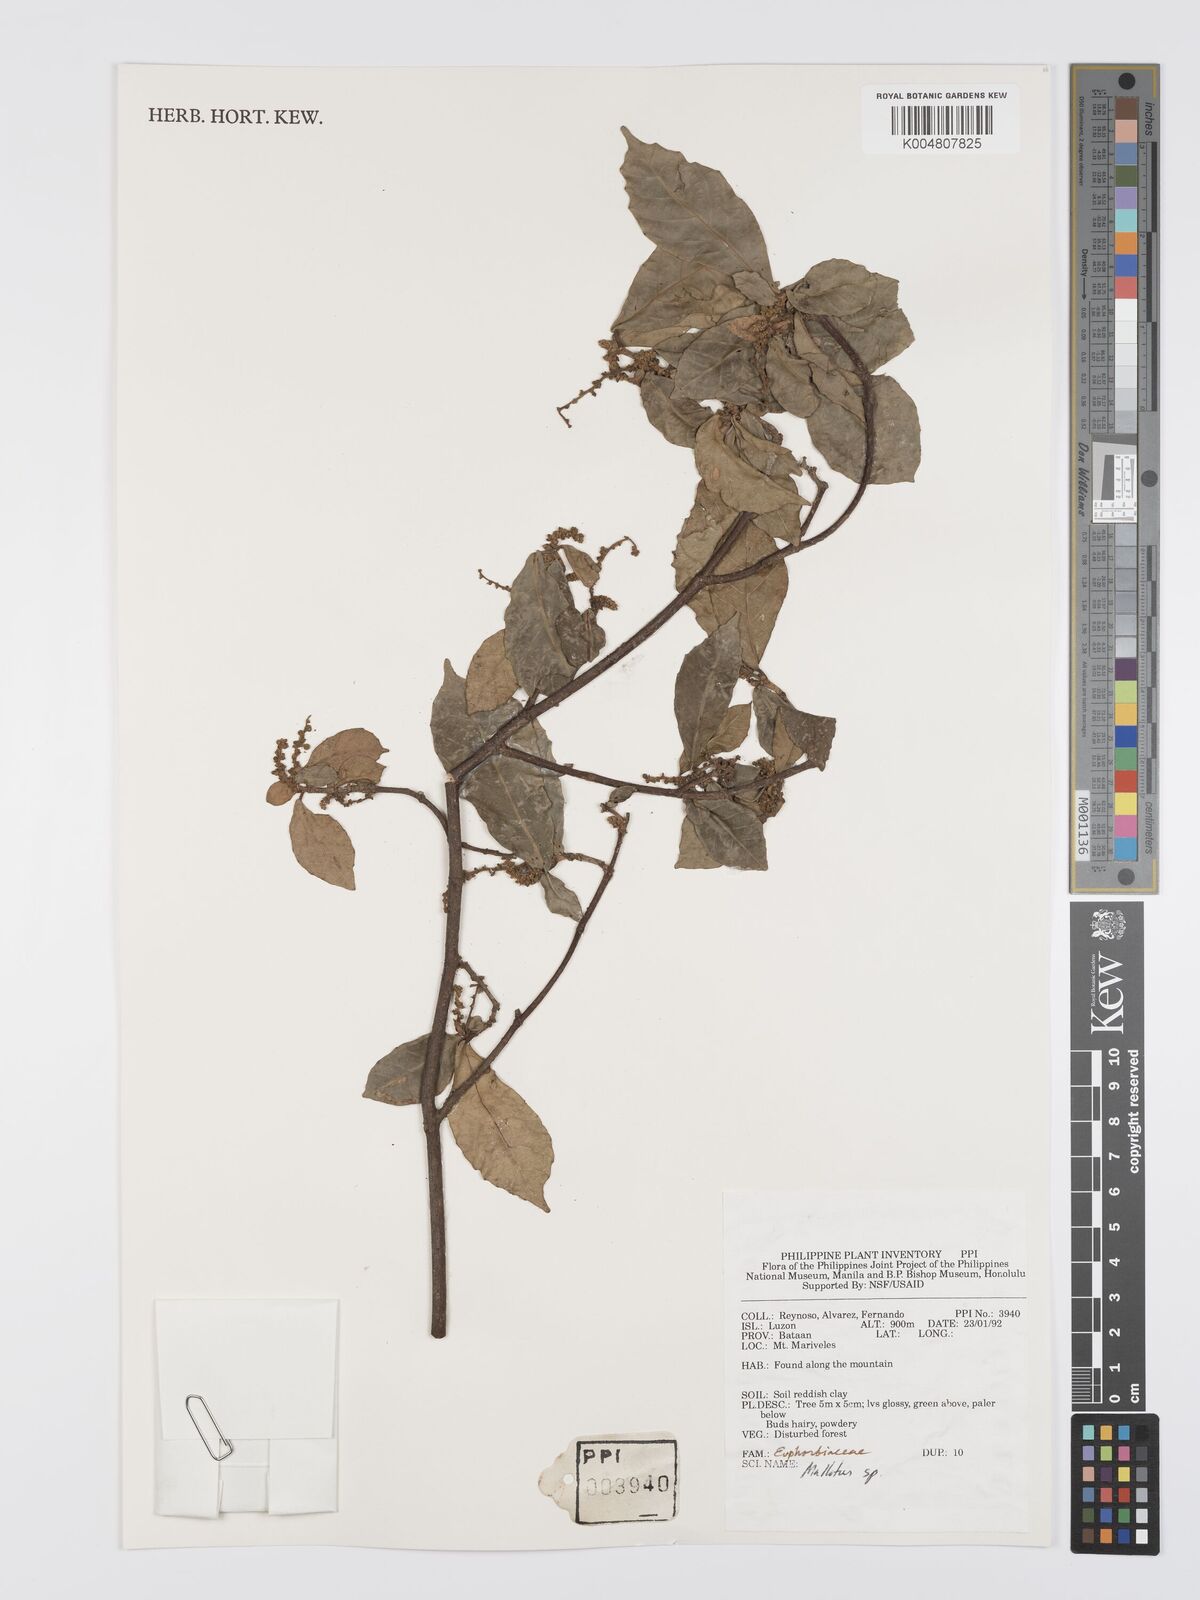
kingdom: Plantae
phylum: Tracheophyta
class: Magnoliopsida
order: Malpighiales
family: Euphorbiaceae
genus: Mallotus
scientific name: Mallotus
